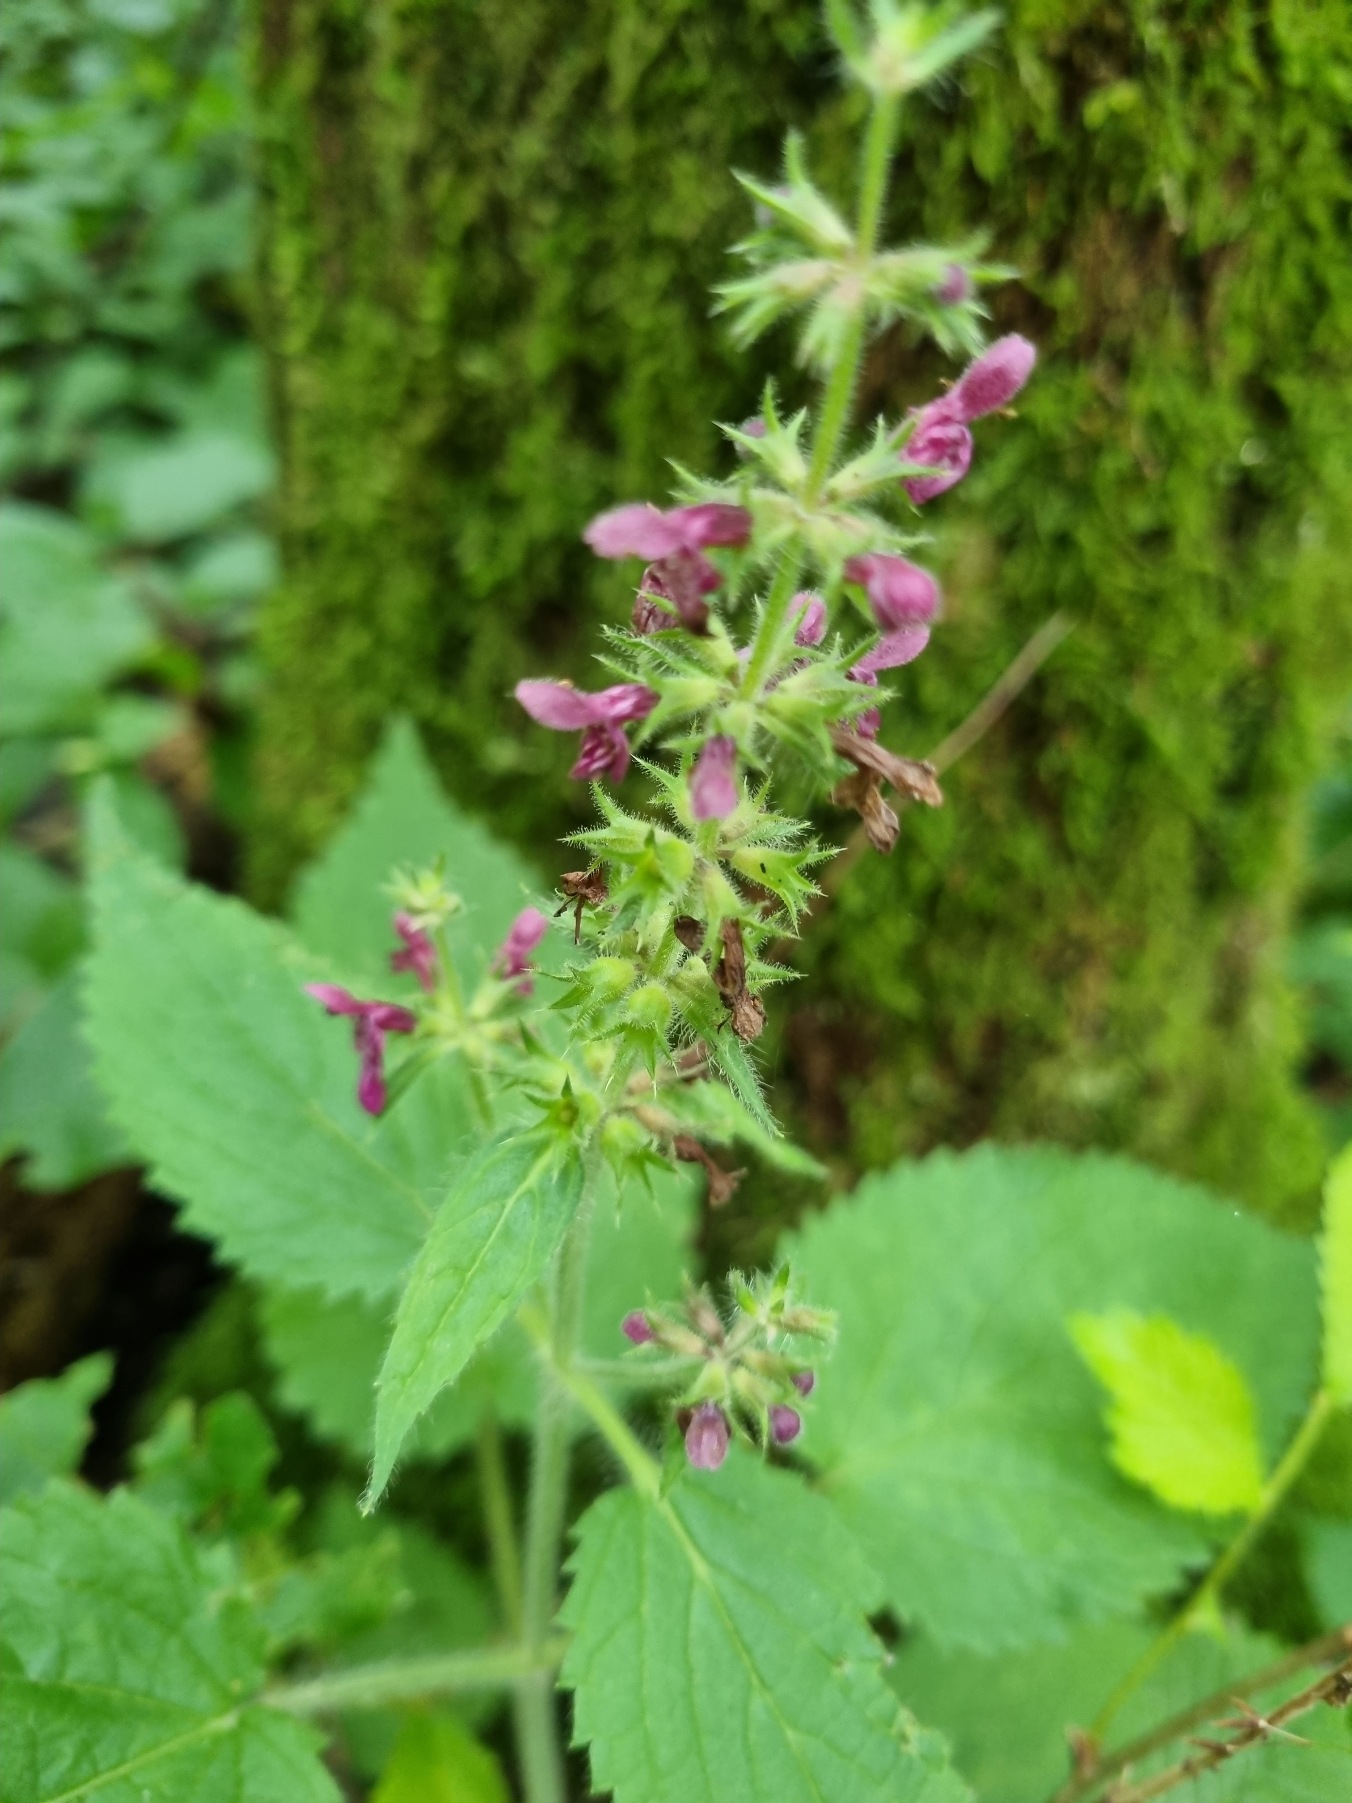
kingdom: Plantae
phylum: Tracheophyta
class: Magnoliopsida
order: Lamiales
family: Lamiaceae
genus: Stachys
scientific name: Stachys sylvatica
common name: Skov-galtetand
